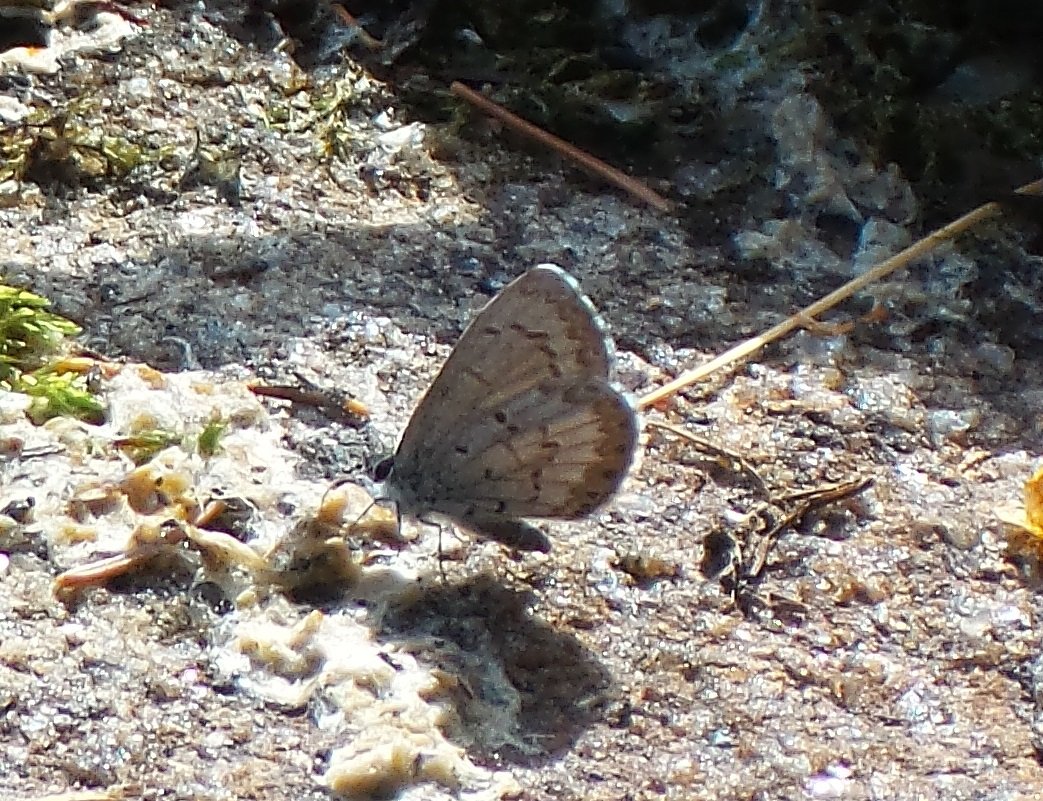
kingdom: Animalia
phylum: Arthropoda
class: Insecta
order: Lepidoptera
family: Lycaenidae
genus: Celastrina
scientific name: Celastrina lucia
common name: Northern Spring Azure
